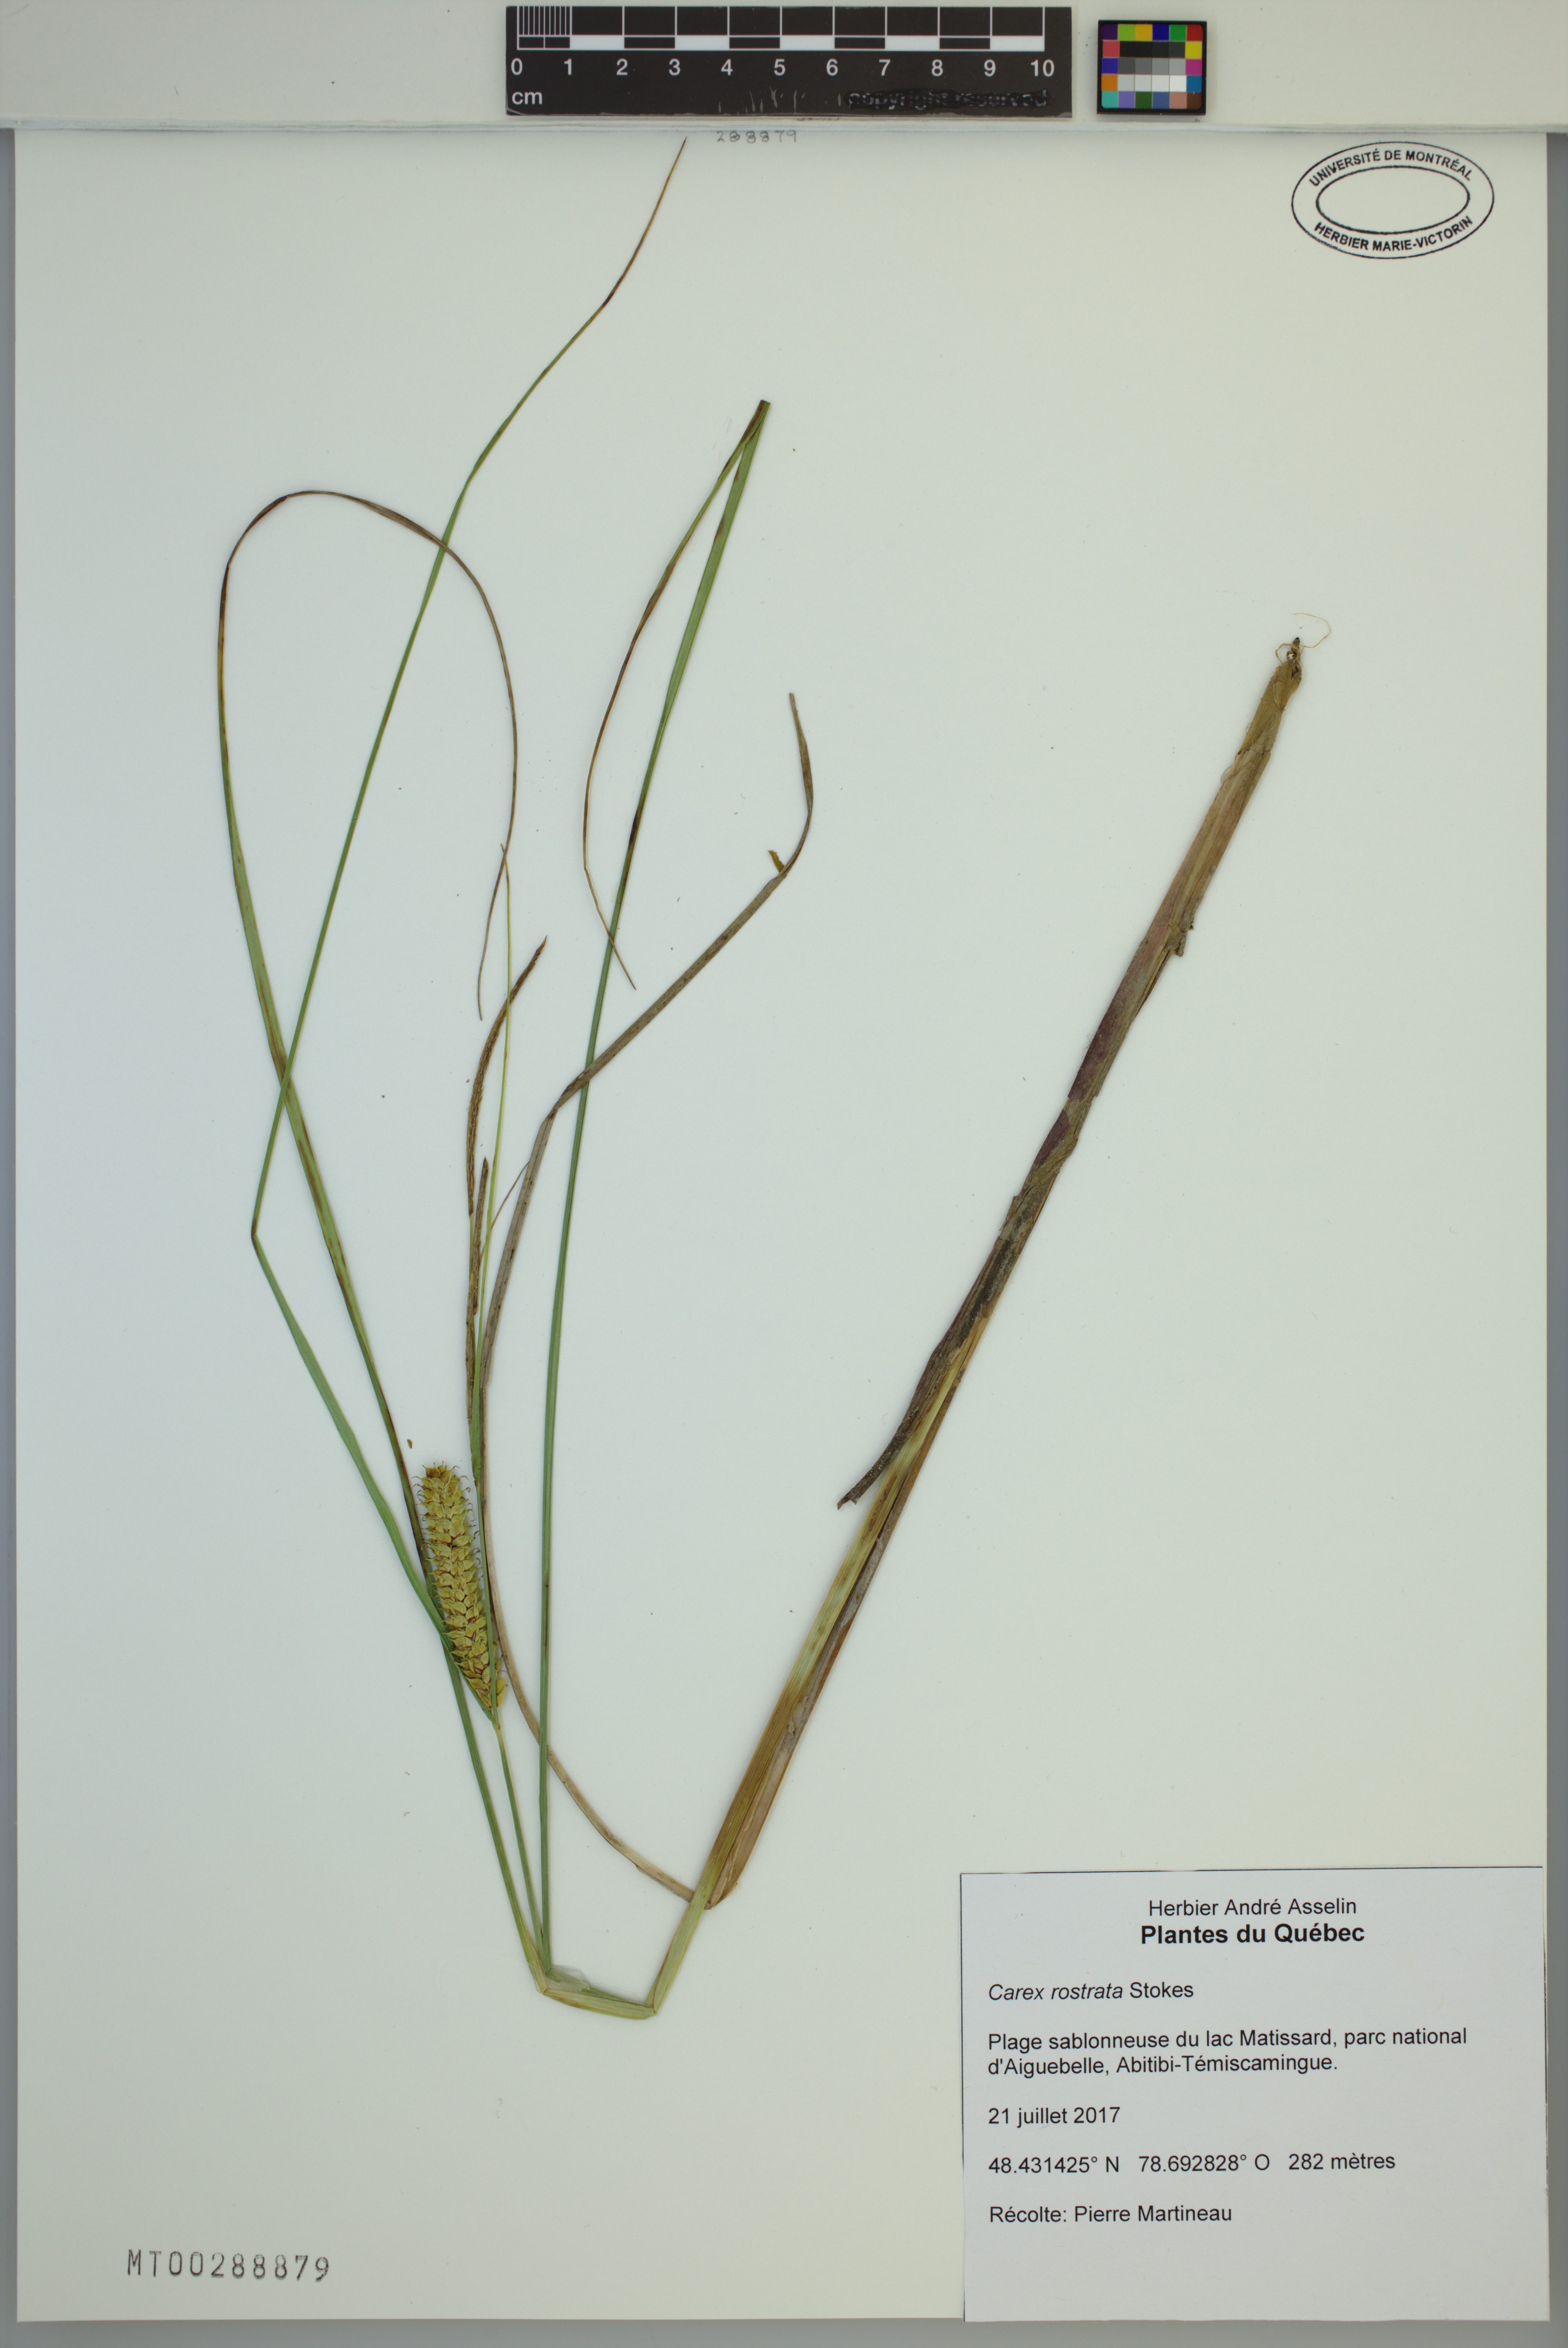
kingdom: Plantae
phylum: Tracheophyta
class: Liliopsida
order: Poales
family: Cyperaceae
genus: Carex
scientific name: Carex rostrata
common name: Bottle sedge
